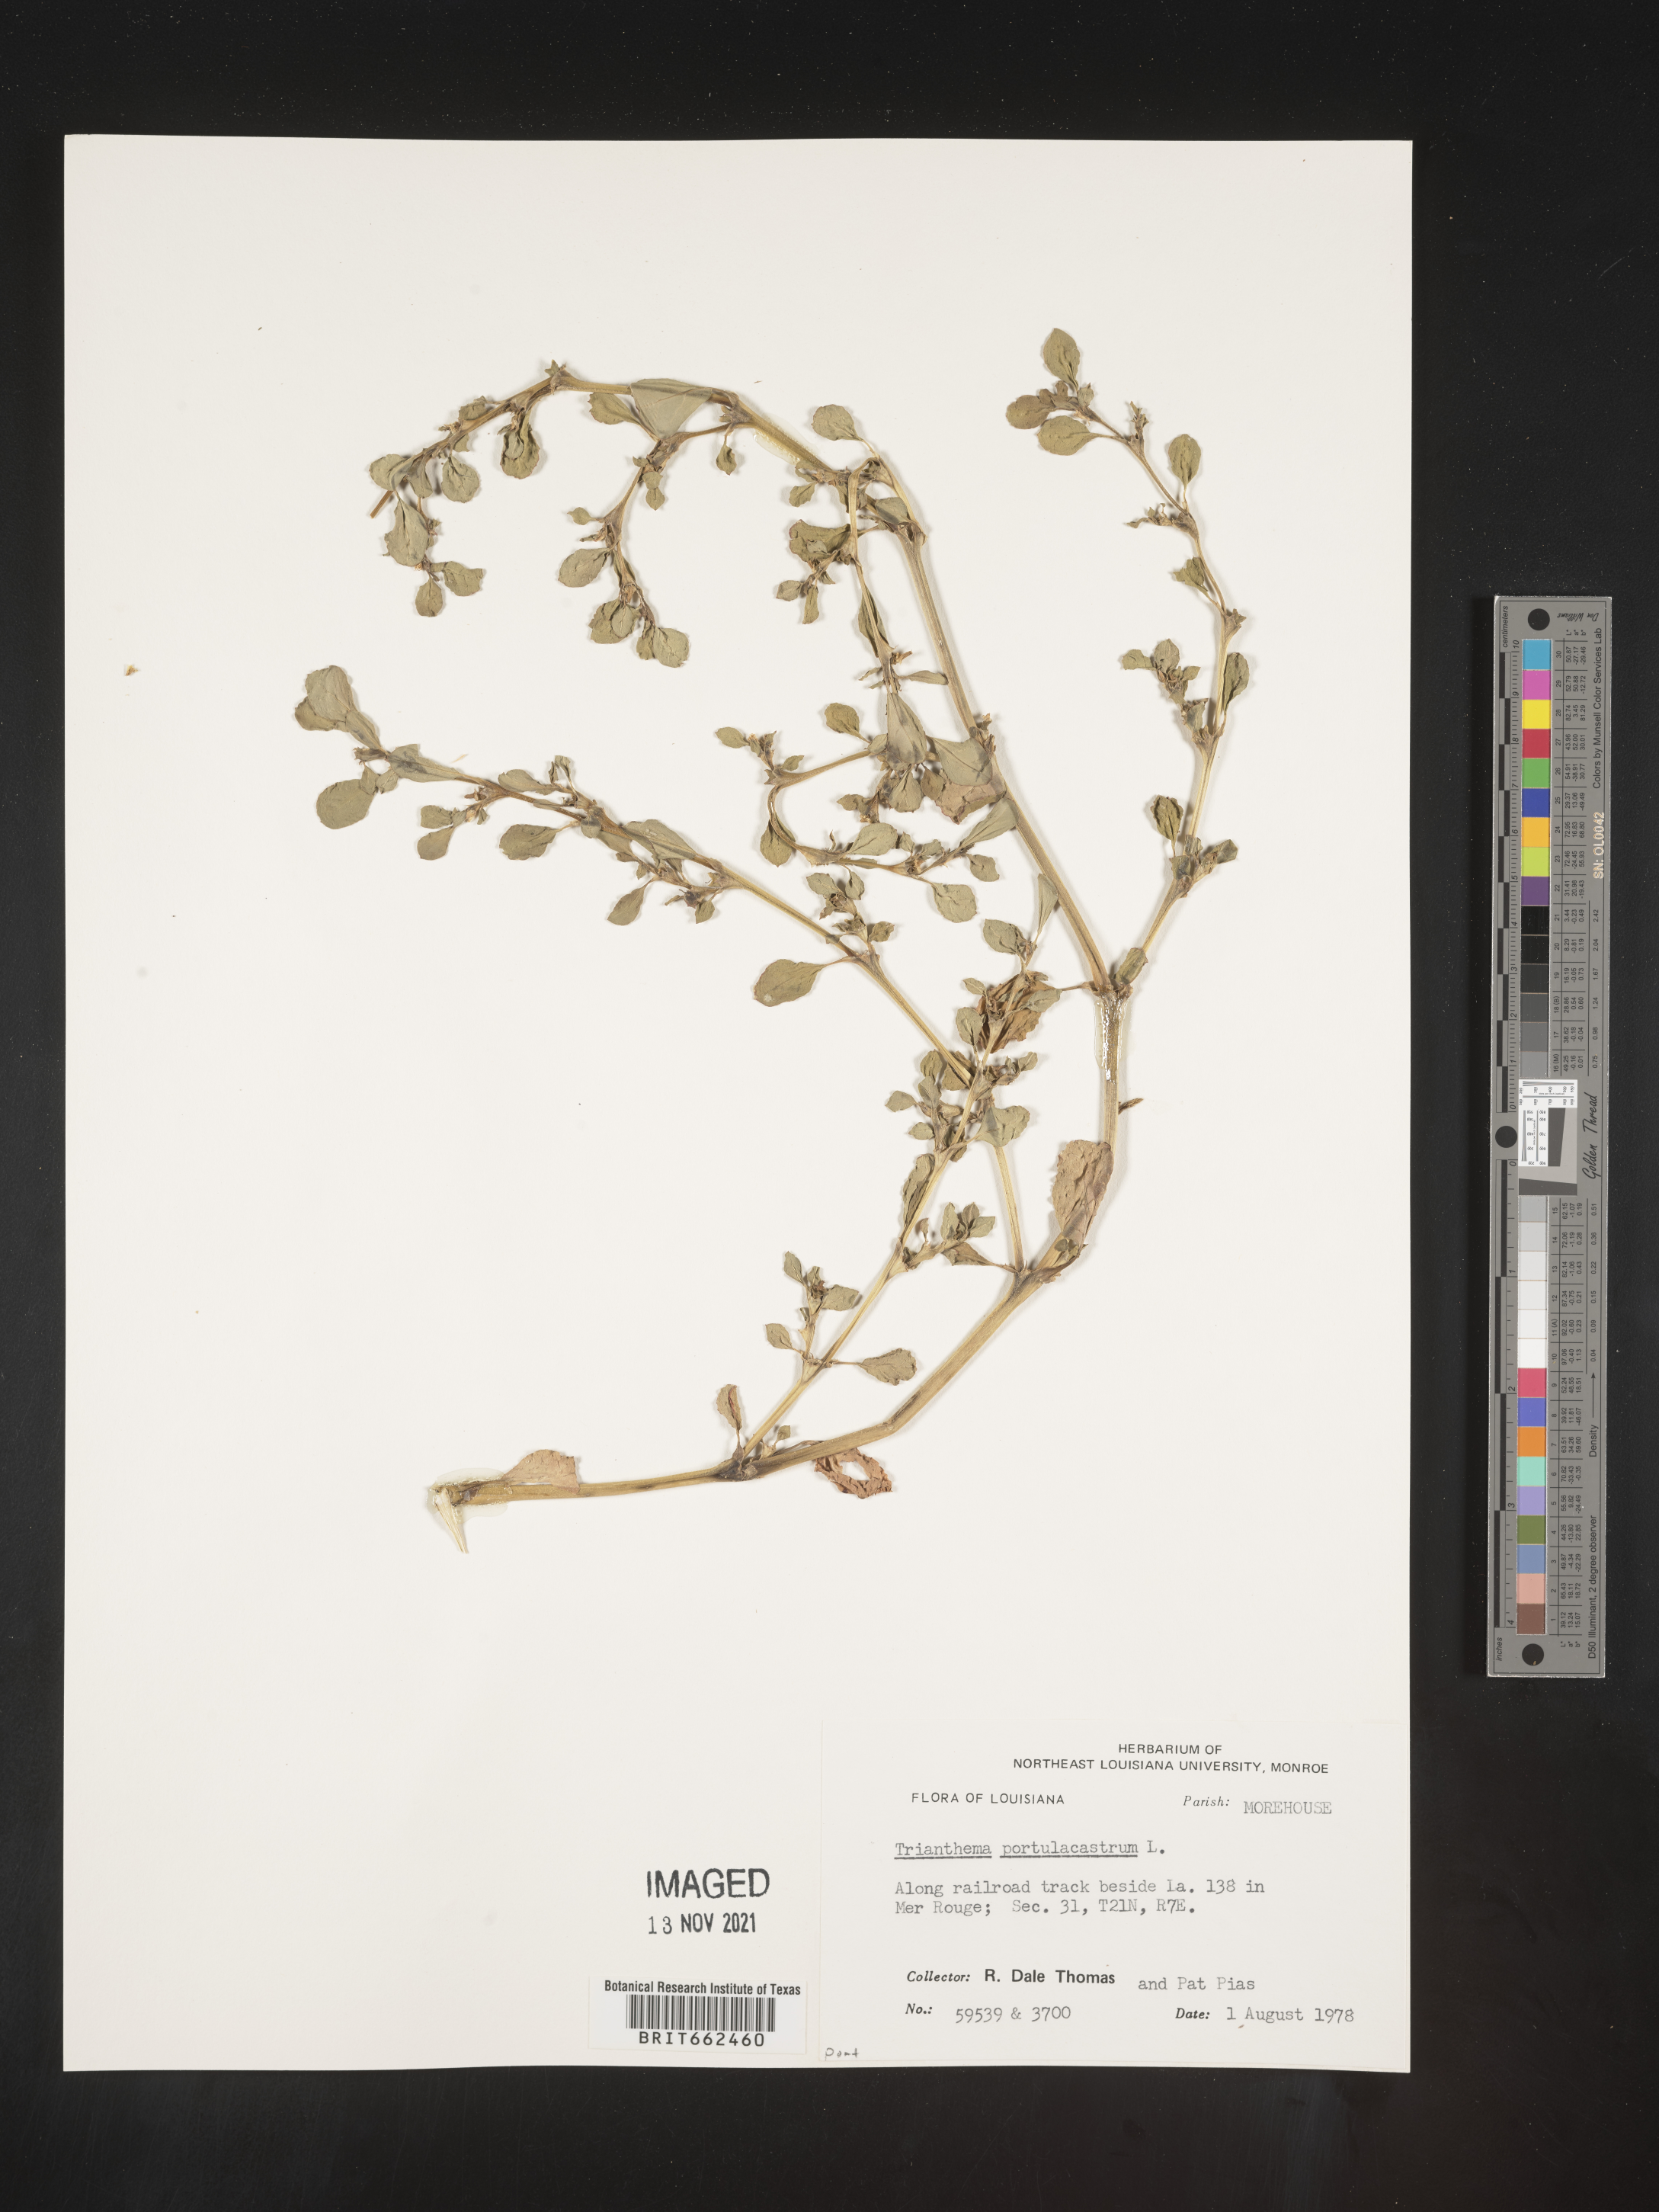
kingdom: Plantae
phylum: Tracheophyta
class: Magnoliopsida
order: Caryophyllales
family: Aizoaceae
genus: Trianthema
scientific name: Trianthema
